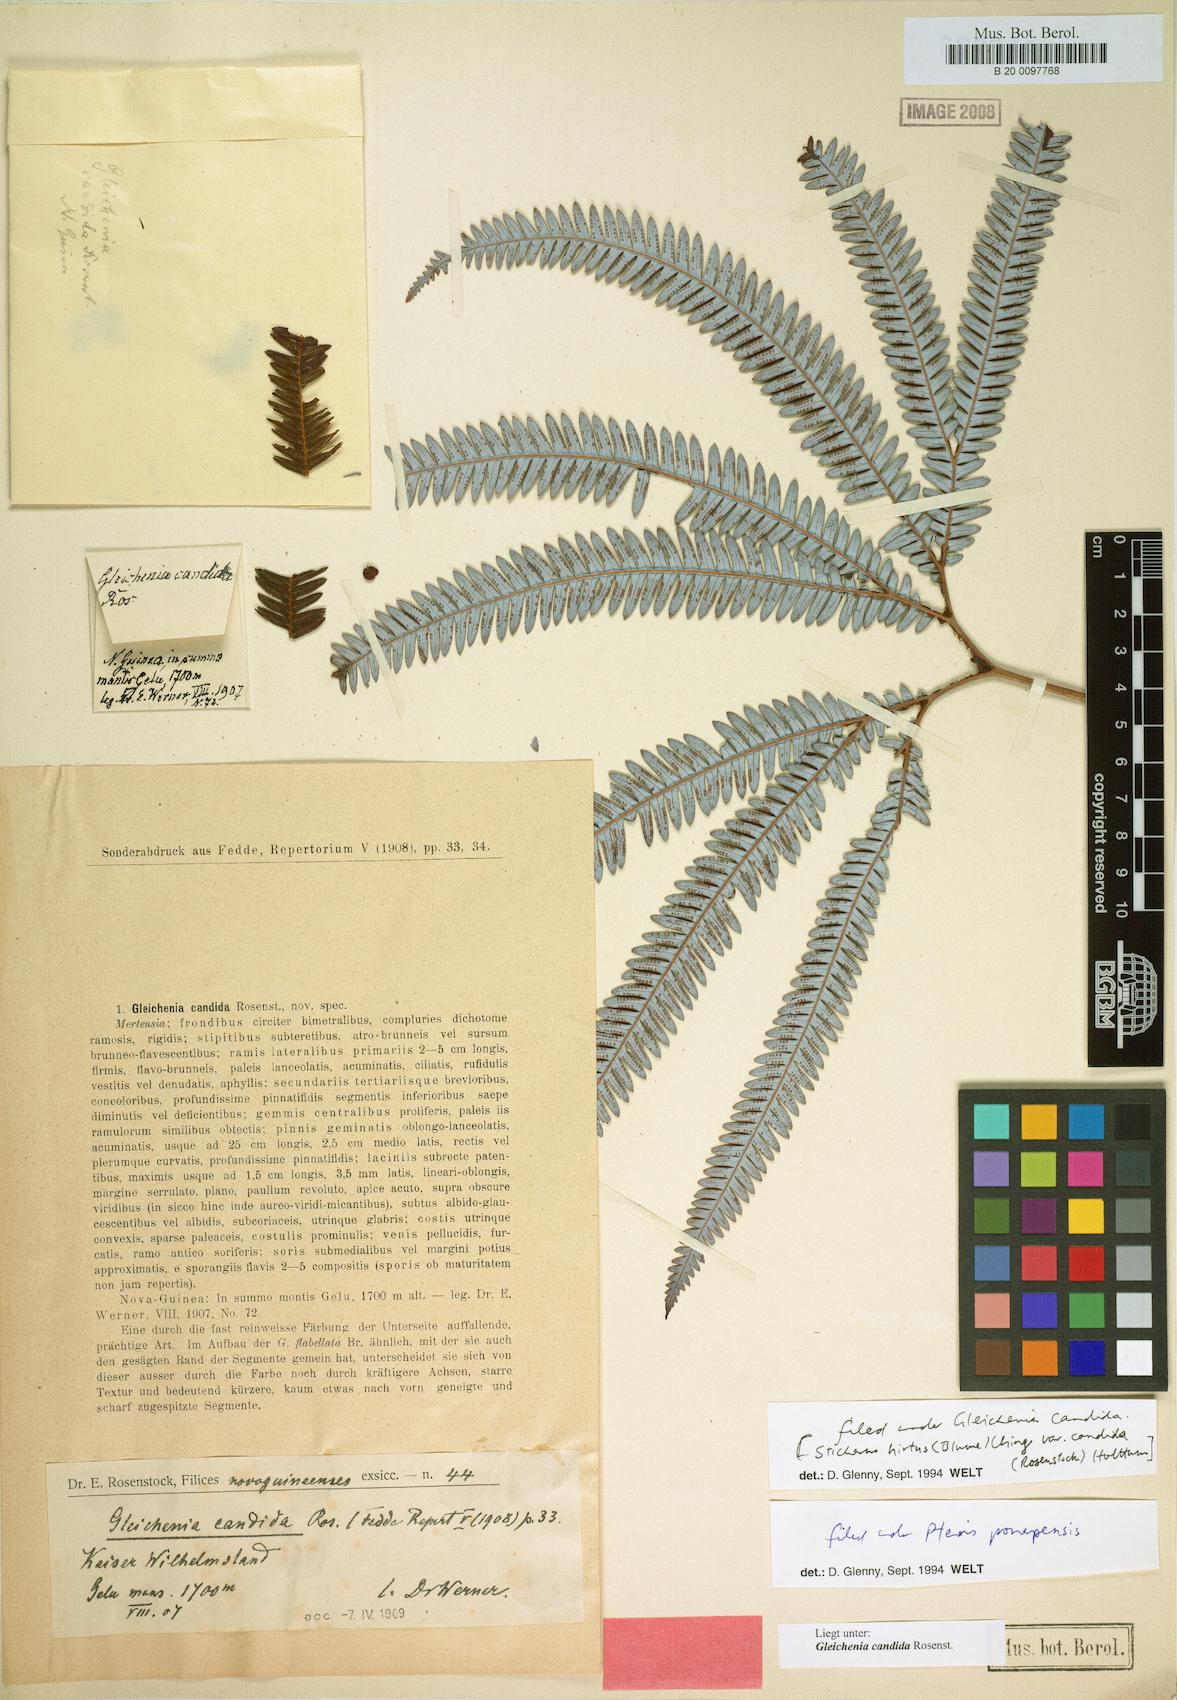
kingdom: Plantae
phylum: Tracheophyta
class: Polypodiopsida
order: Gleicheniales
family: Gleicheniaceae
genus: Sticherus
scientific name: Sticherus hirtus
